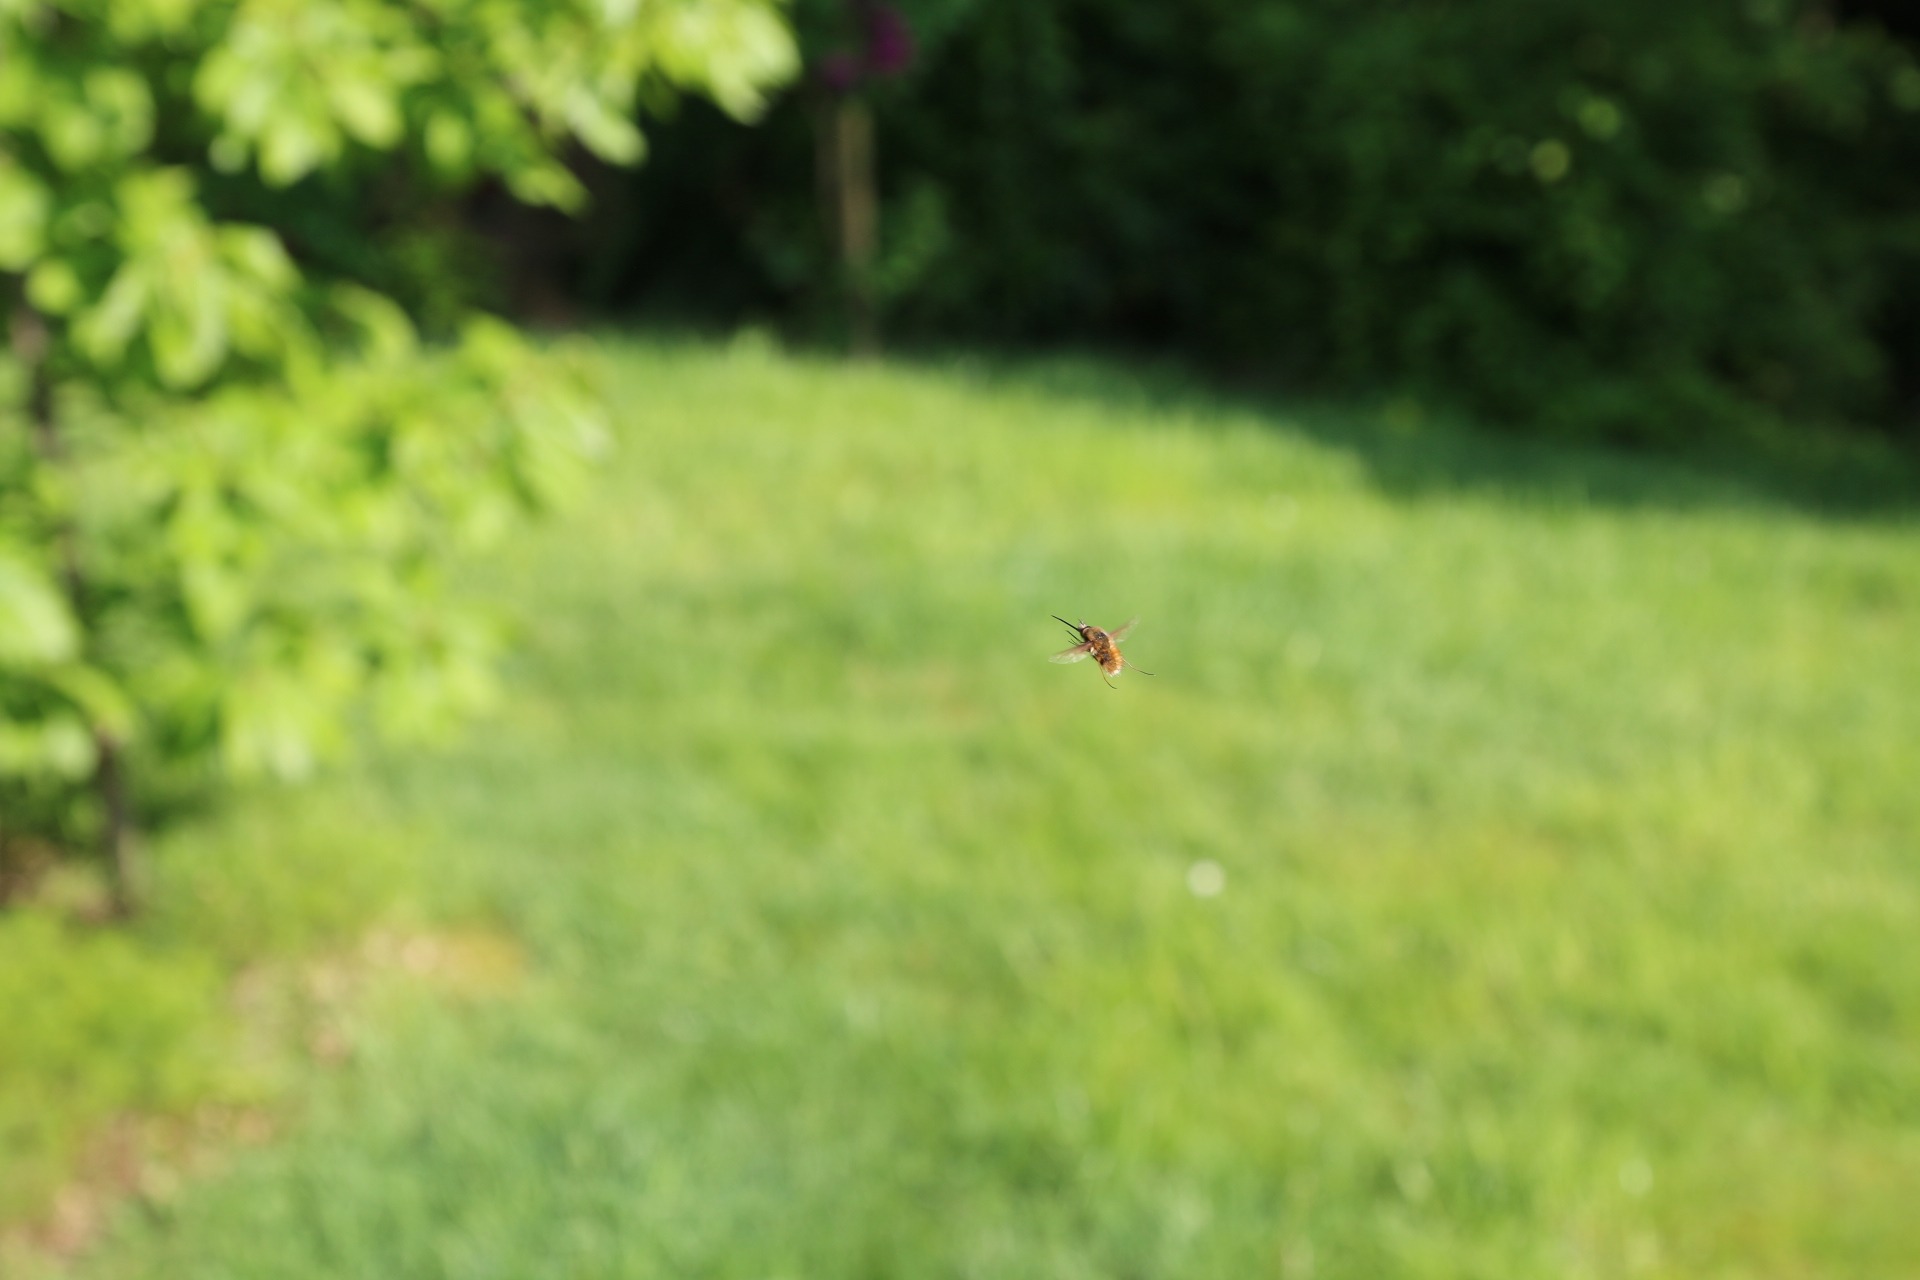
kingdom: Animalia
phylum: Arthropoda
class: Insecta
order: Diptera
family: Bombyliidae
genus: Bombylius
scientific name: Bombylius major
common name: Stor humleflue
